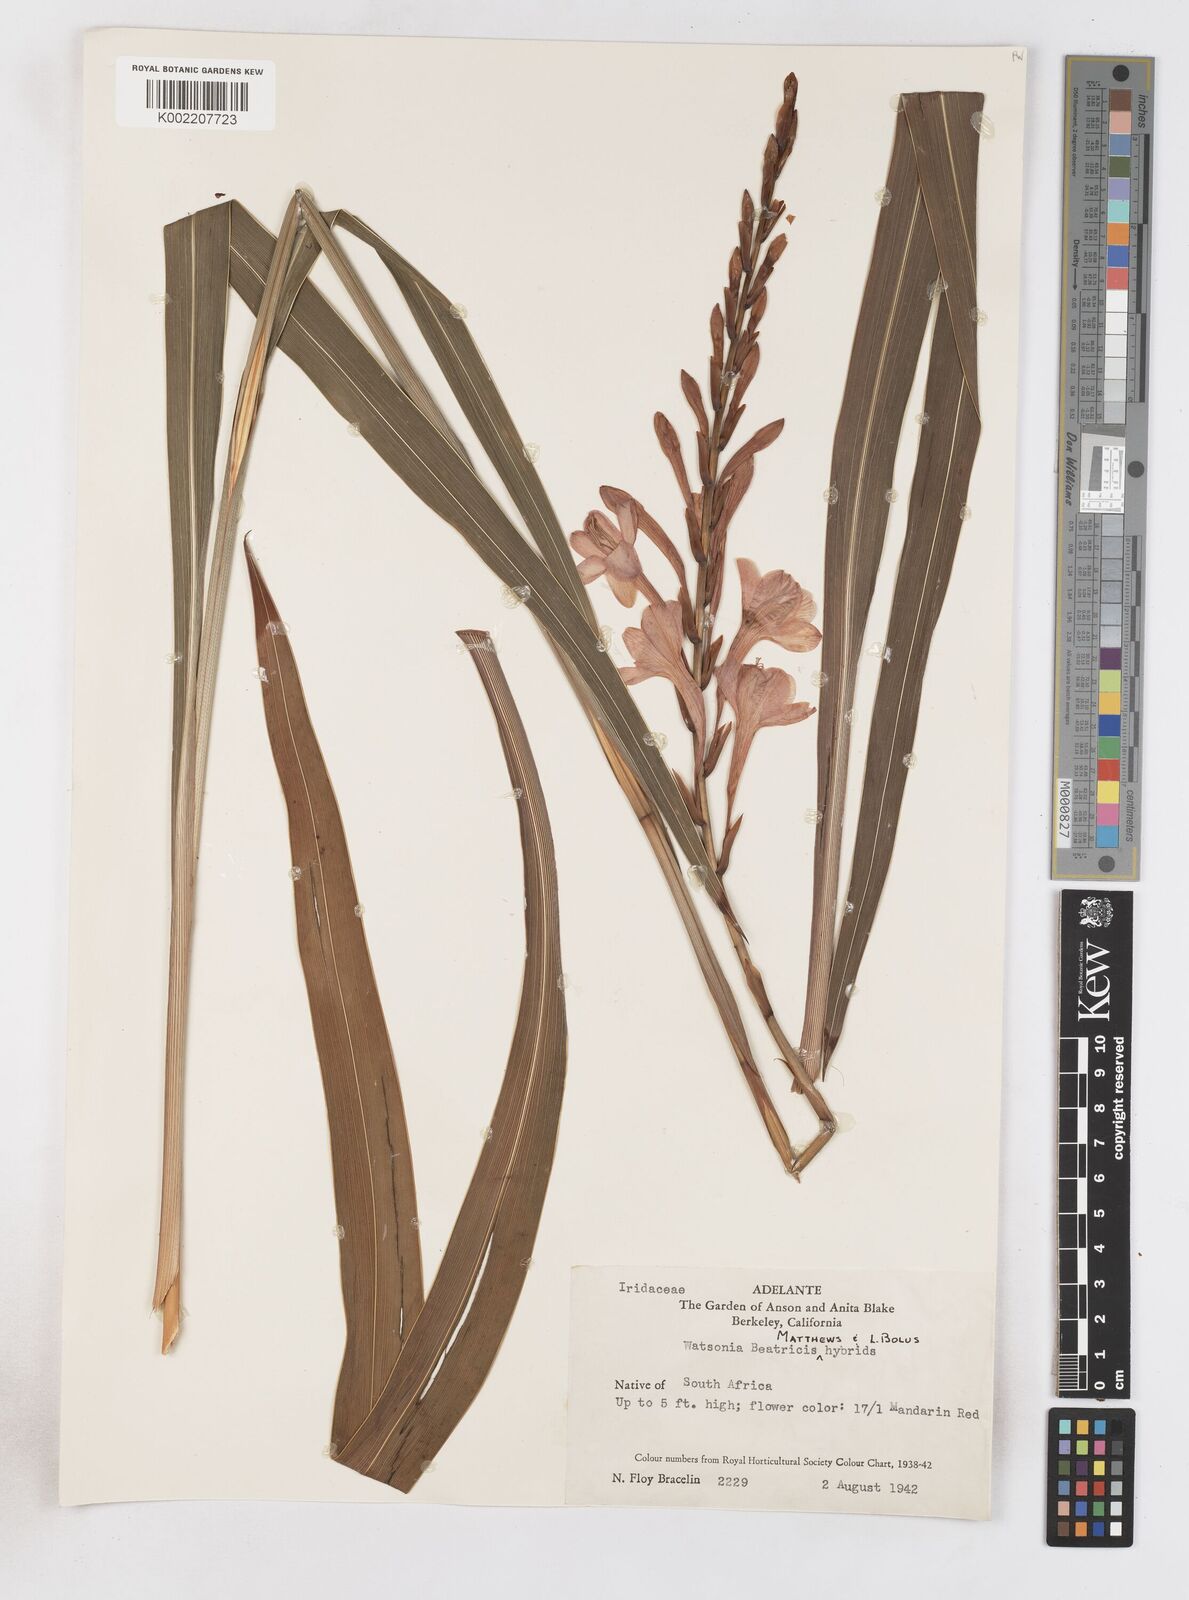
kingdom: Plantae
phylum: Tracheophyta
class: Liliopsida
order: Asparagales
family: Iridaceae
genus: Watsonia
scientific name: Watsonia pillansii
